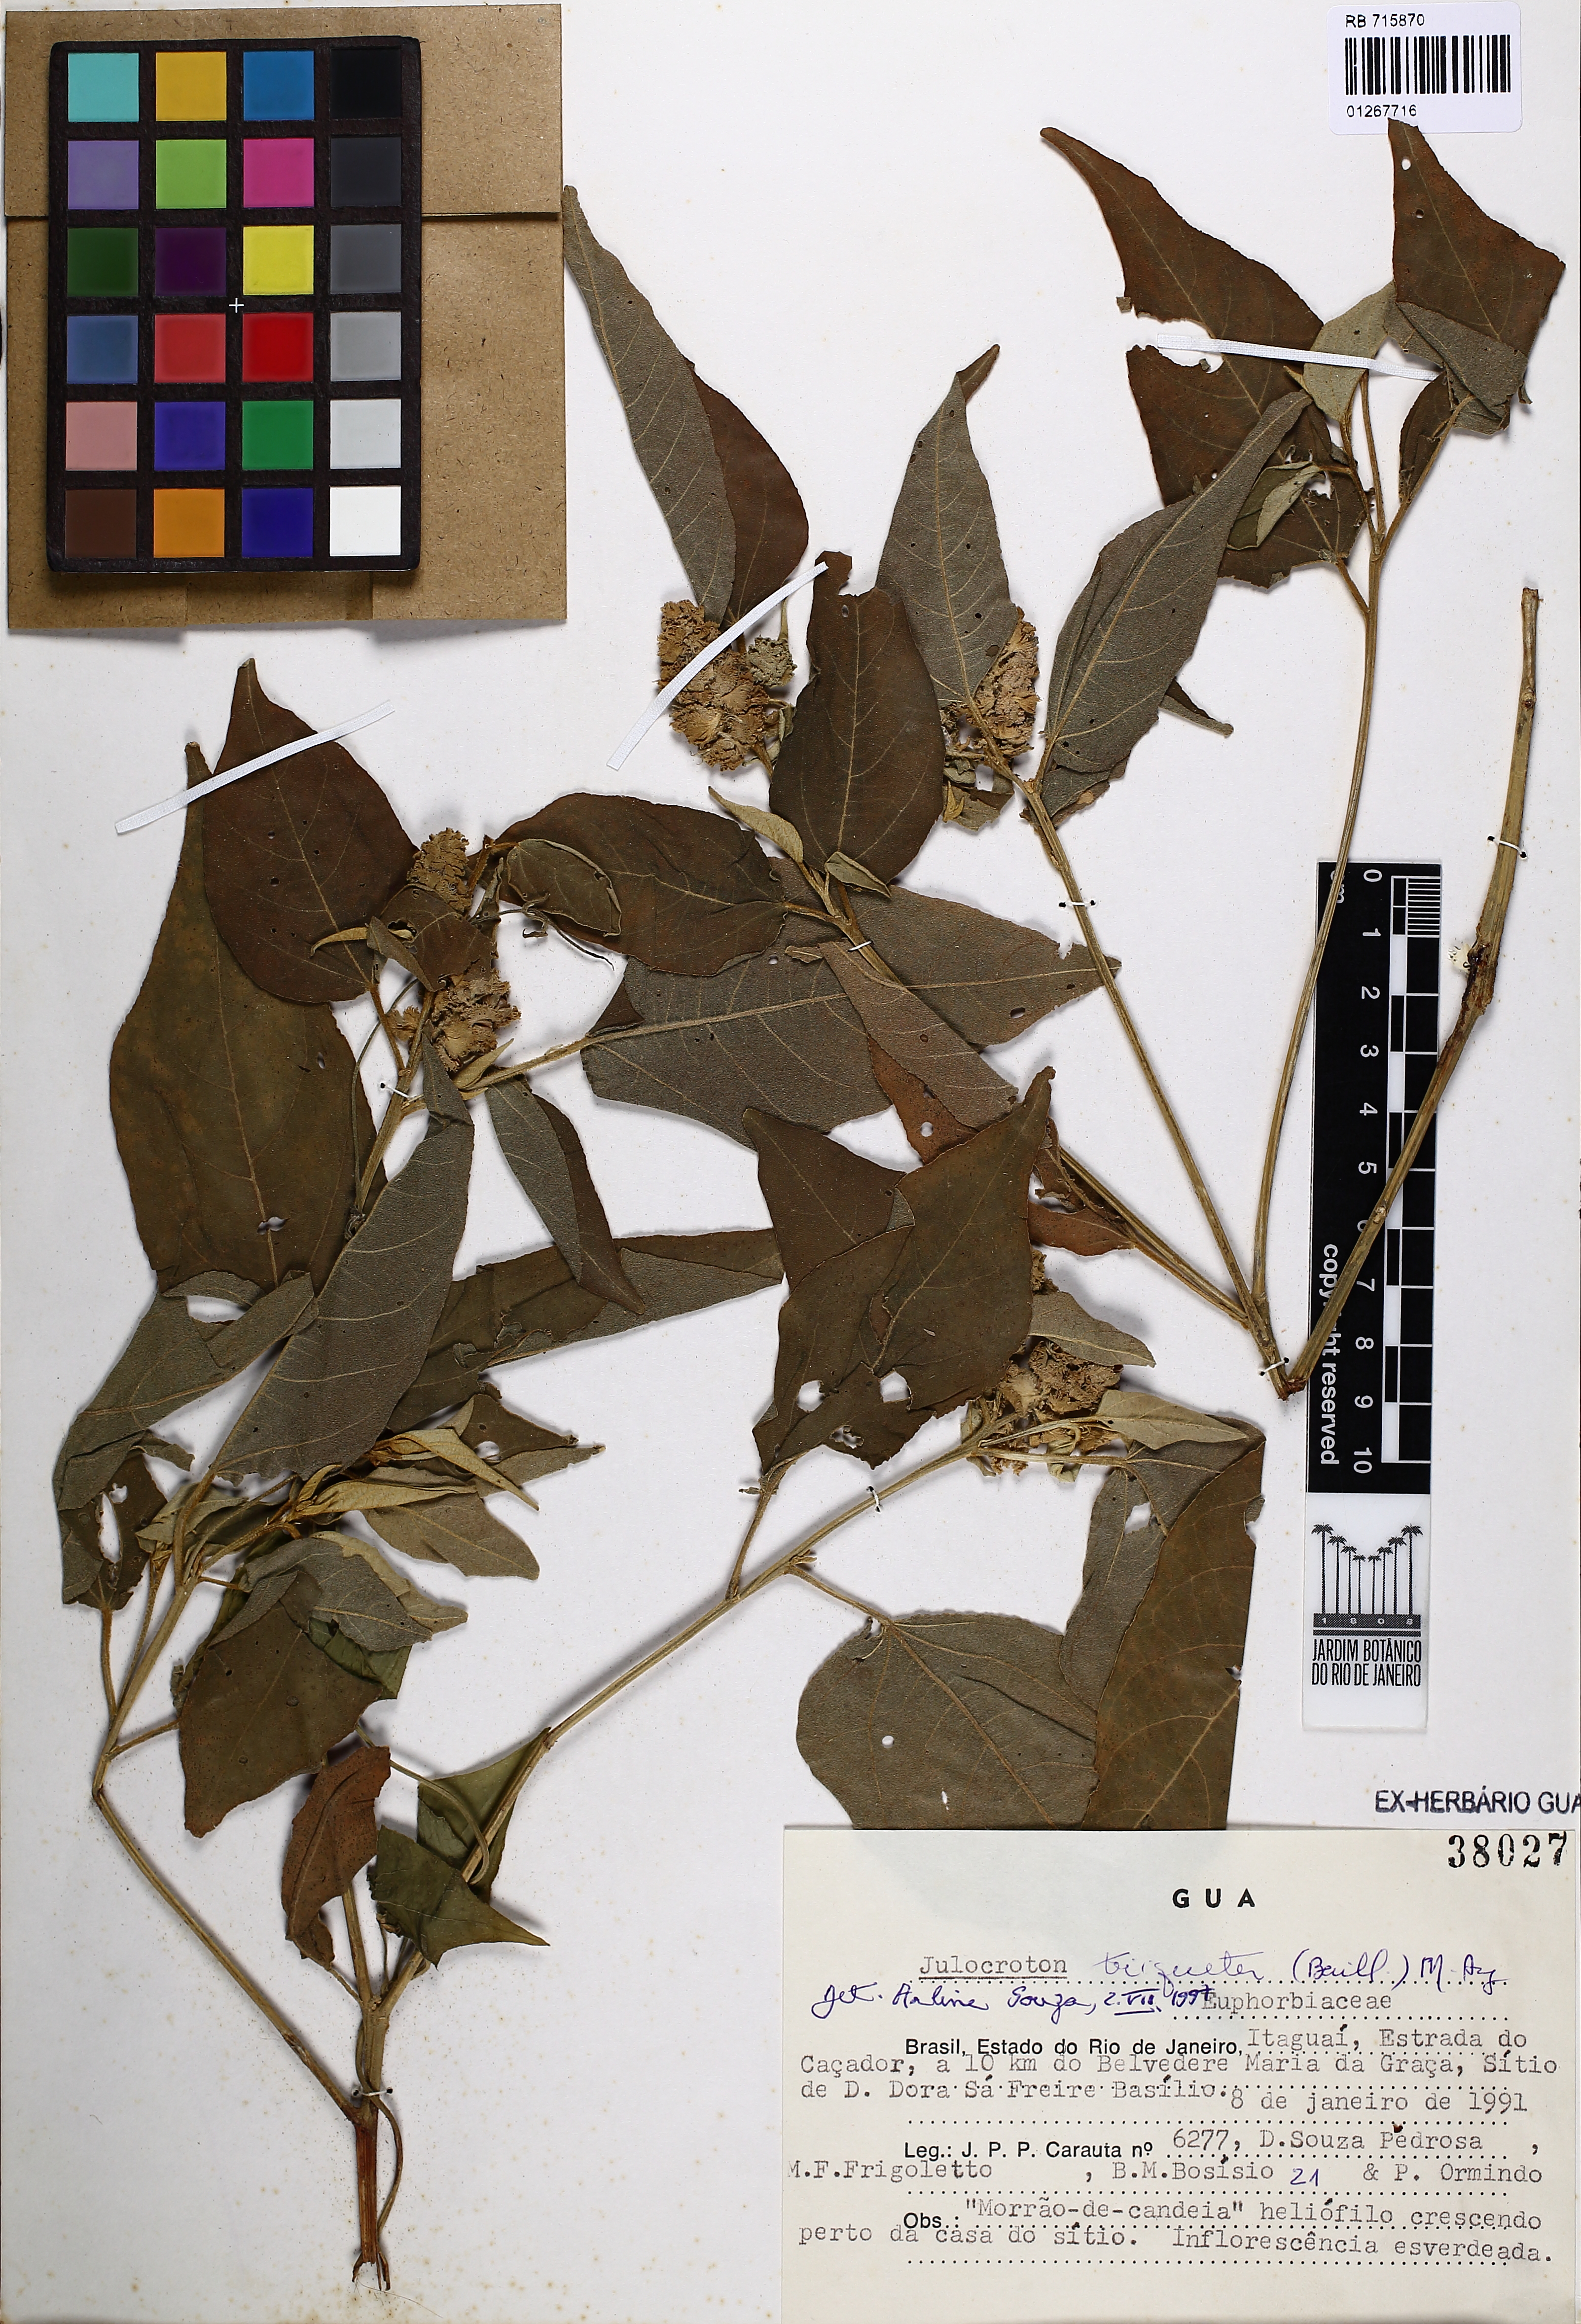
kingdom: Plantae
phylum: Tracheophyta
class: Magnoliopsida
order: Malpighiales
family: Euphorbiaceae
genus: Croton
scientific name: Croton triqueter
